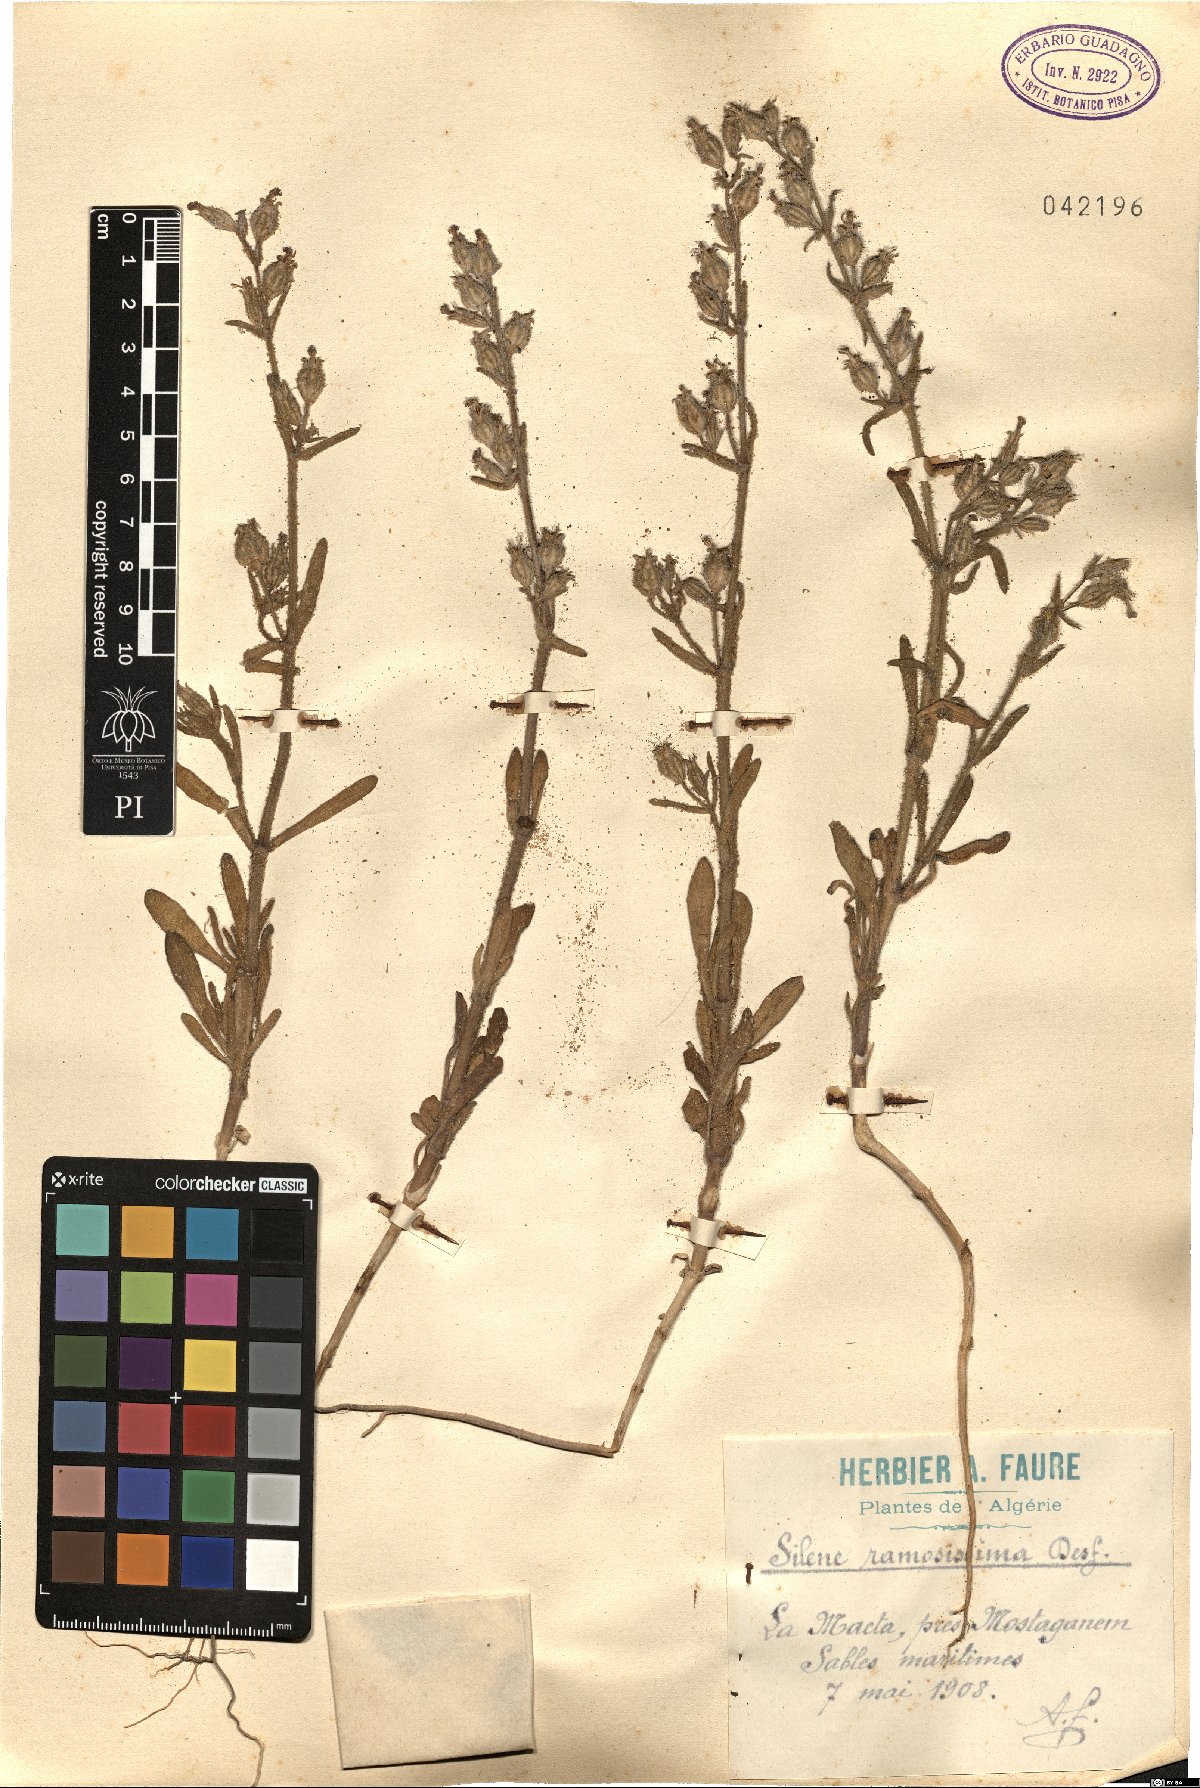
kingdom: Plantae
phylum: Tracheophyta
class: Magnoliopsida
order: Caryophyllales
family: Caryophyllaceae
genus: Silene
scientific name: Silene ramosissima
